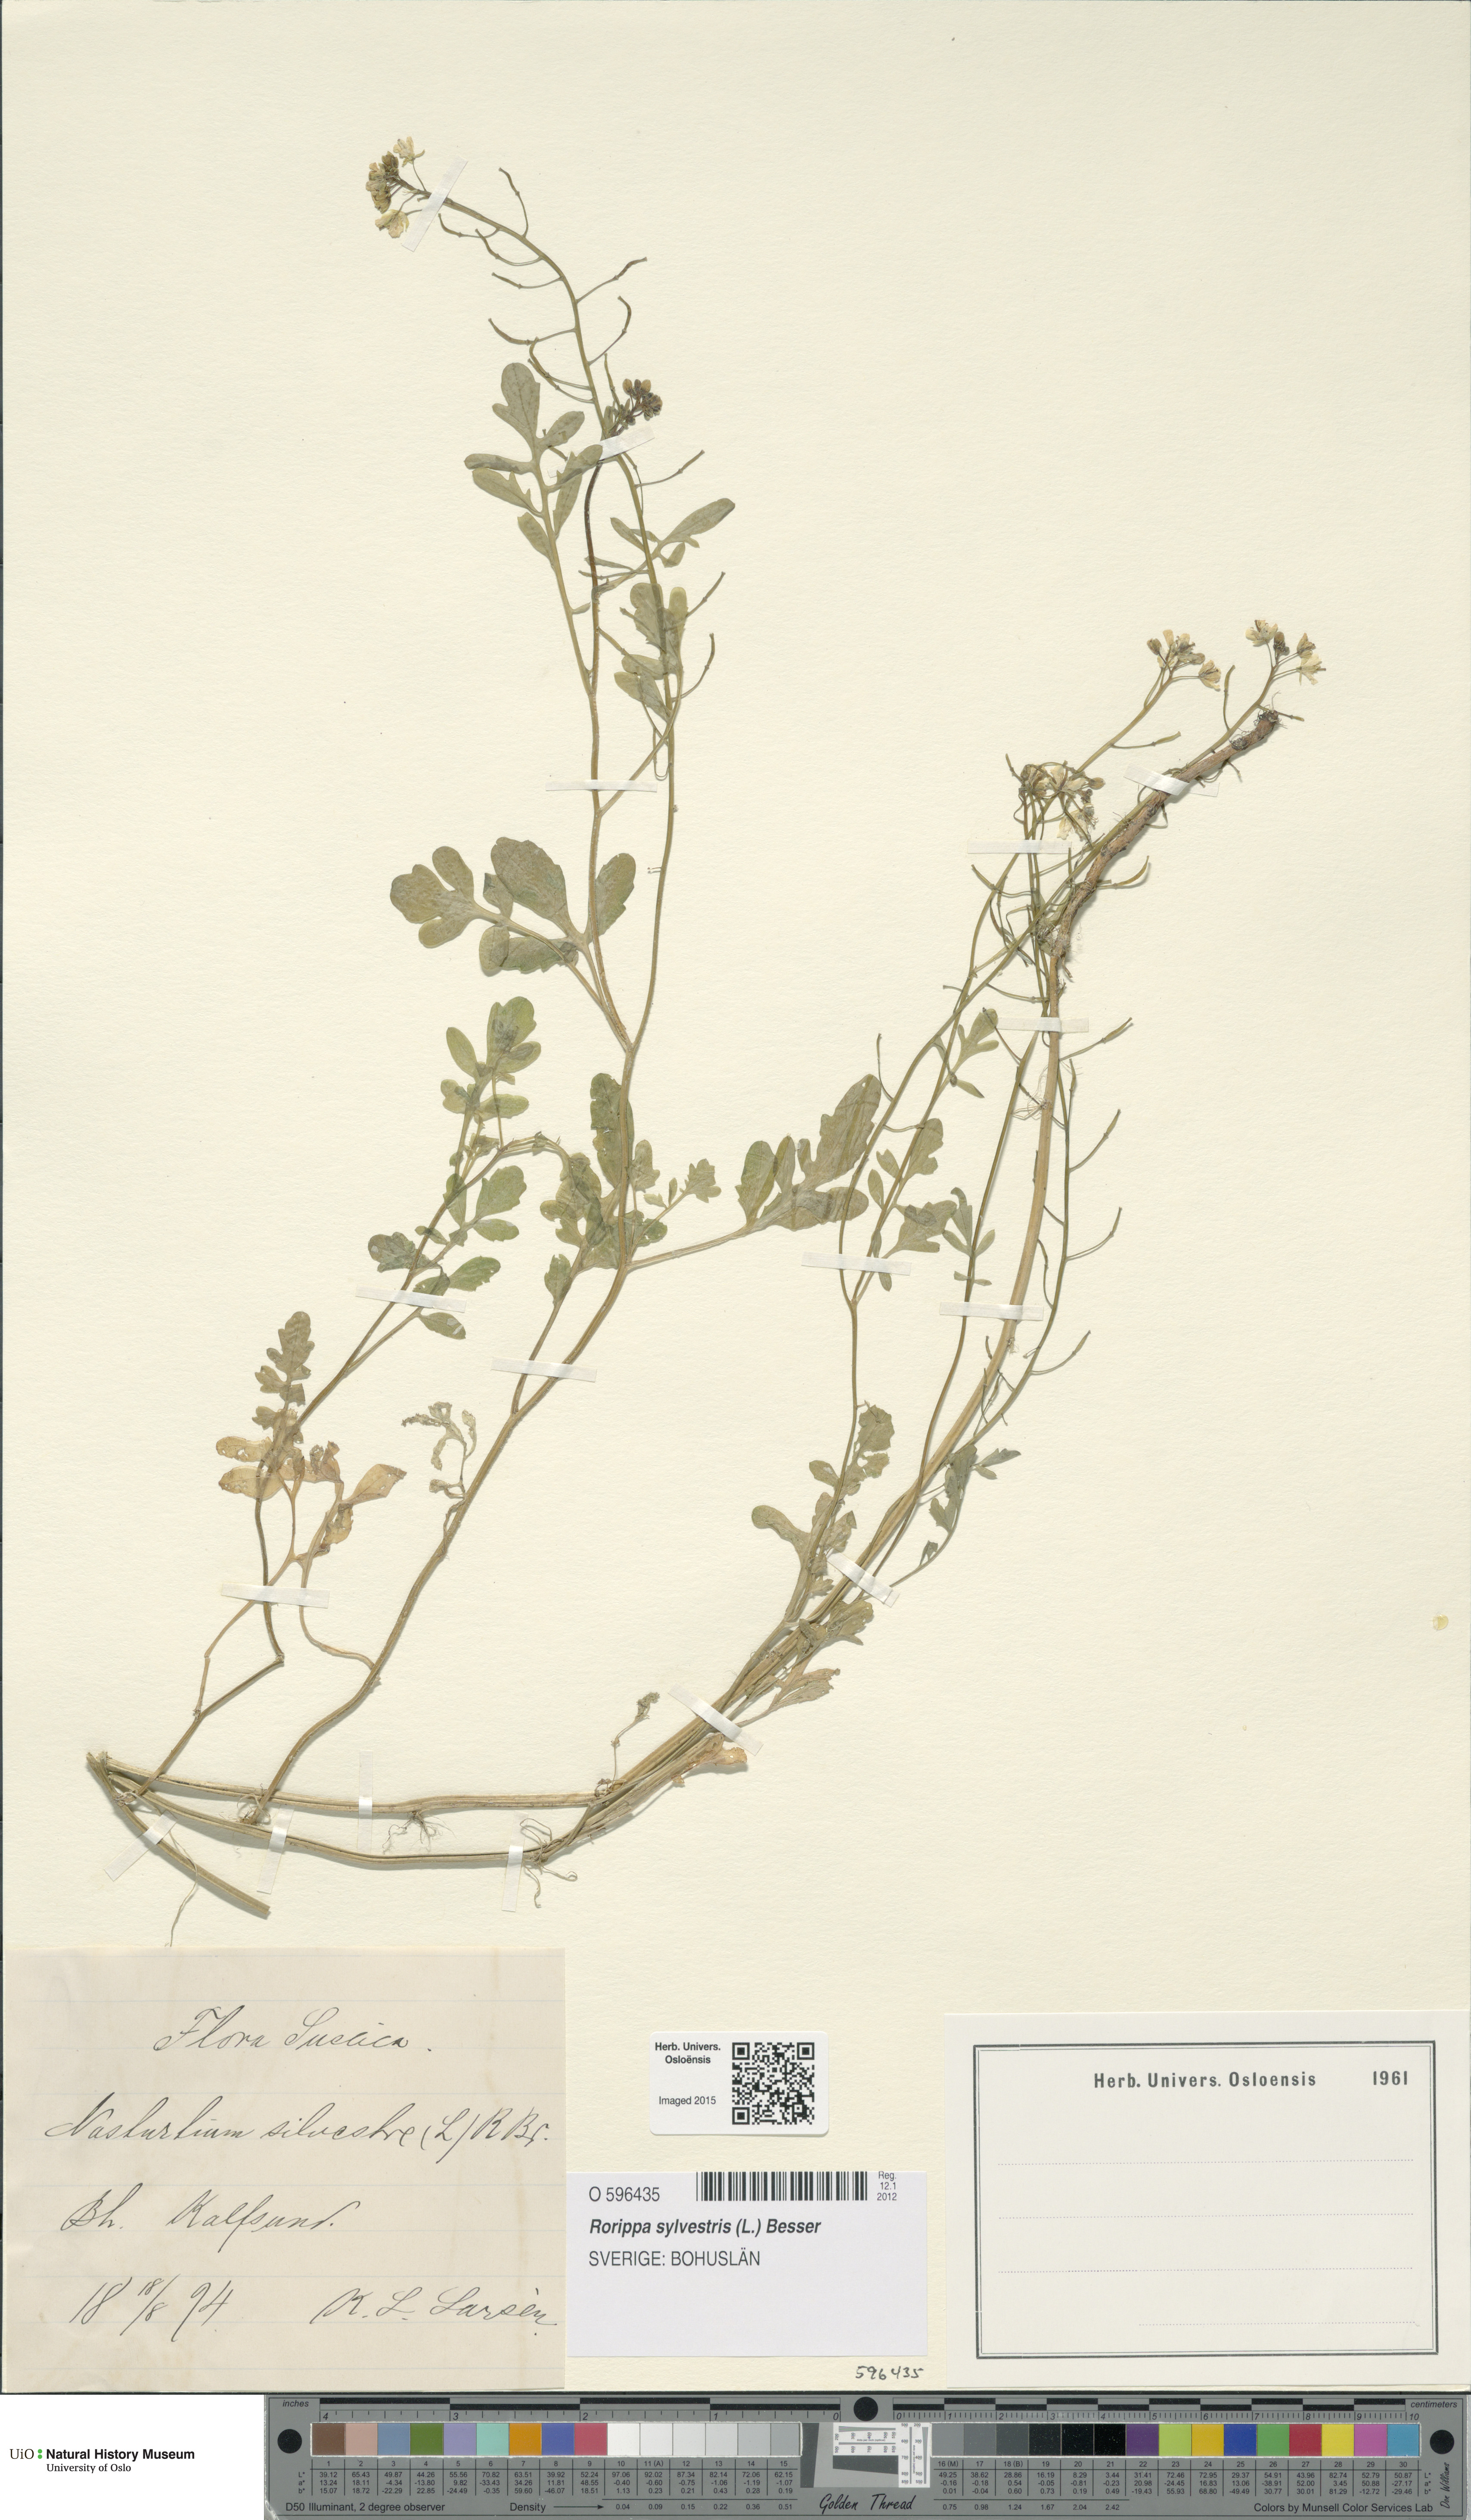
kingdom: Plantae
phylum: Tracheophyta
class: Magnoliopsida
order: Brassicales
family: Brassicaceae
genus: Rorippa
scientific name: Rorippa sylvestris
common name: Creeping yellowcress
